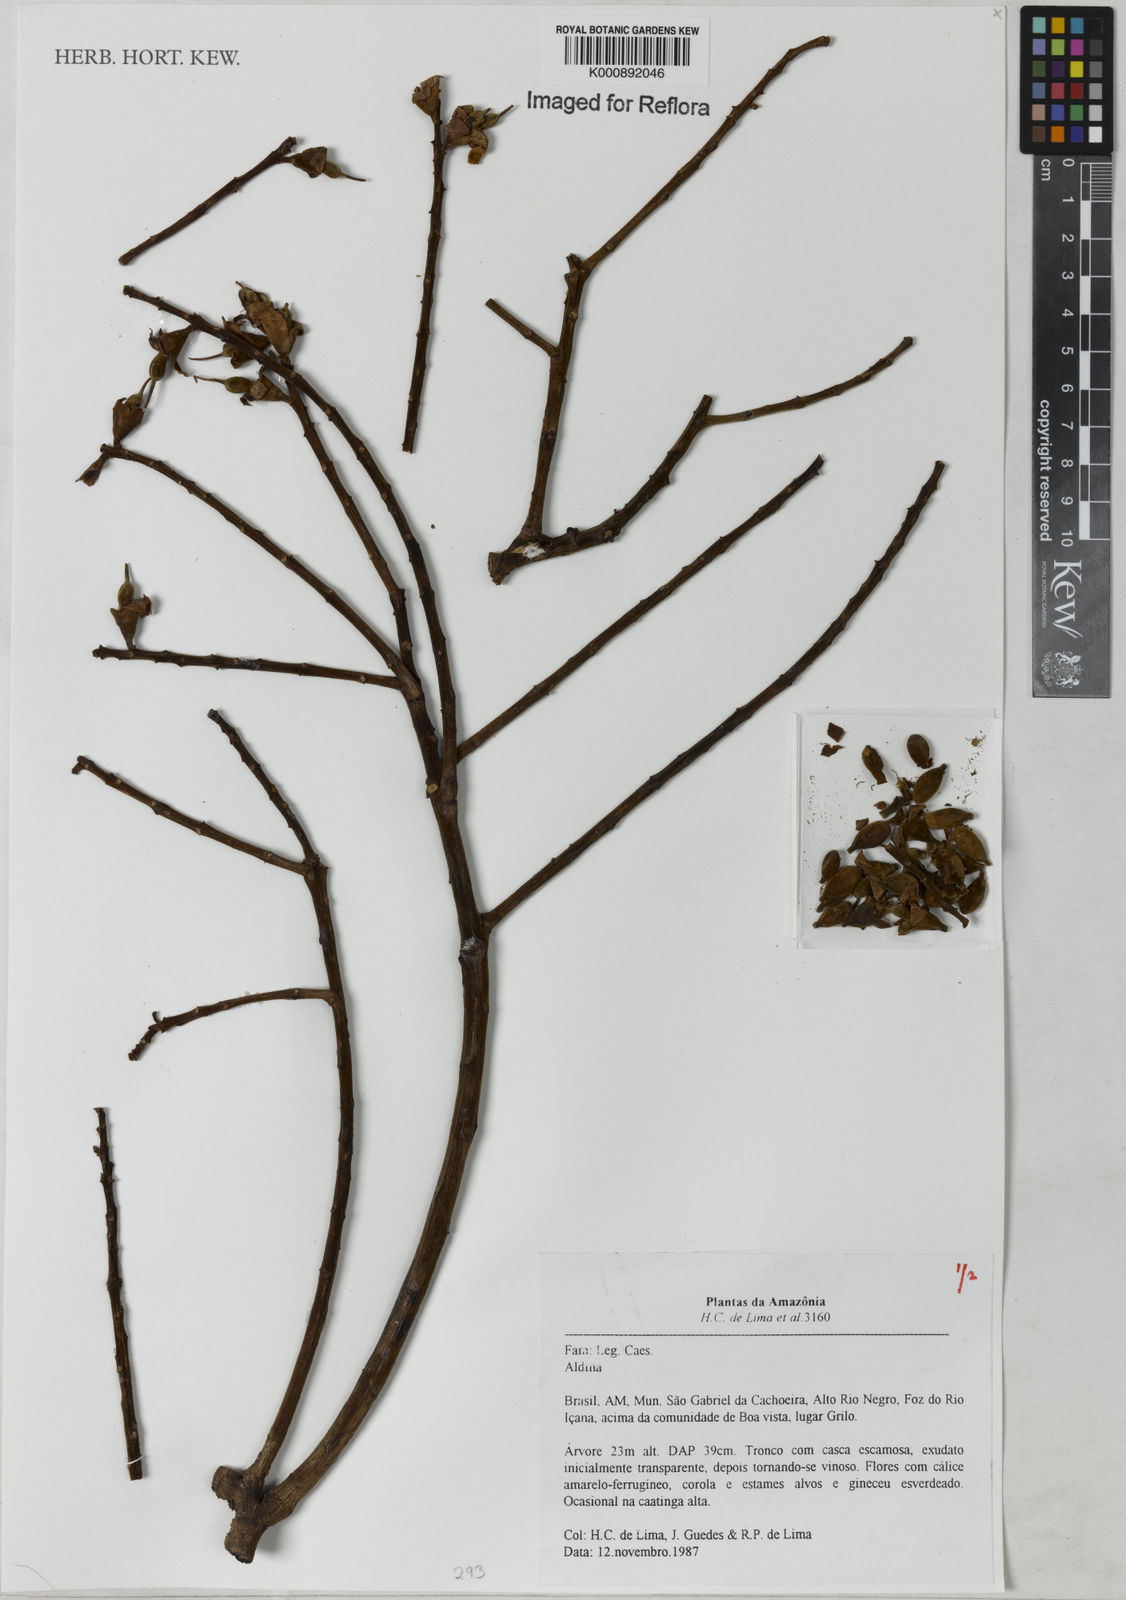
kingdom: Plantae
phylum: Tracheophyta
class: Magnoliopsida
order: Fabales
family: Fabaceae
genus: Aldina
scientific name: Aldina
